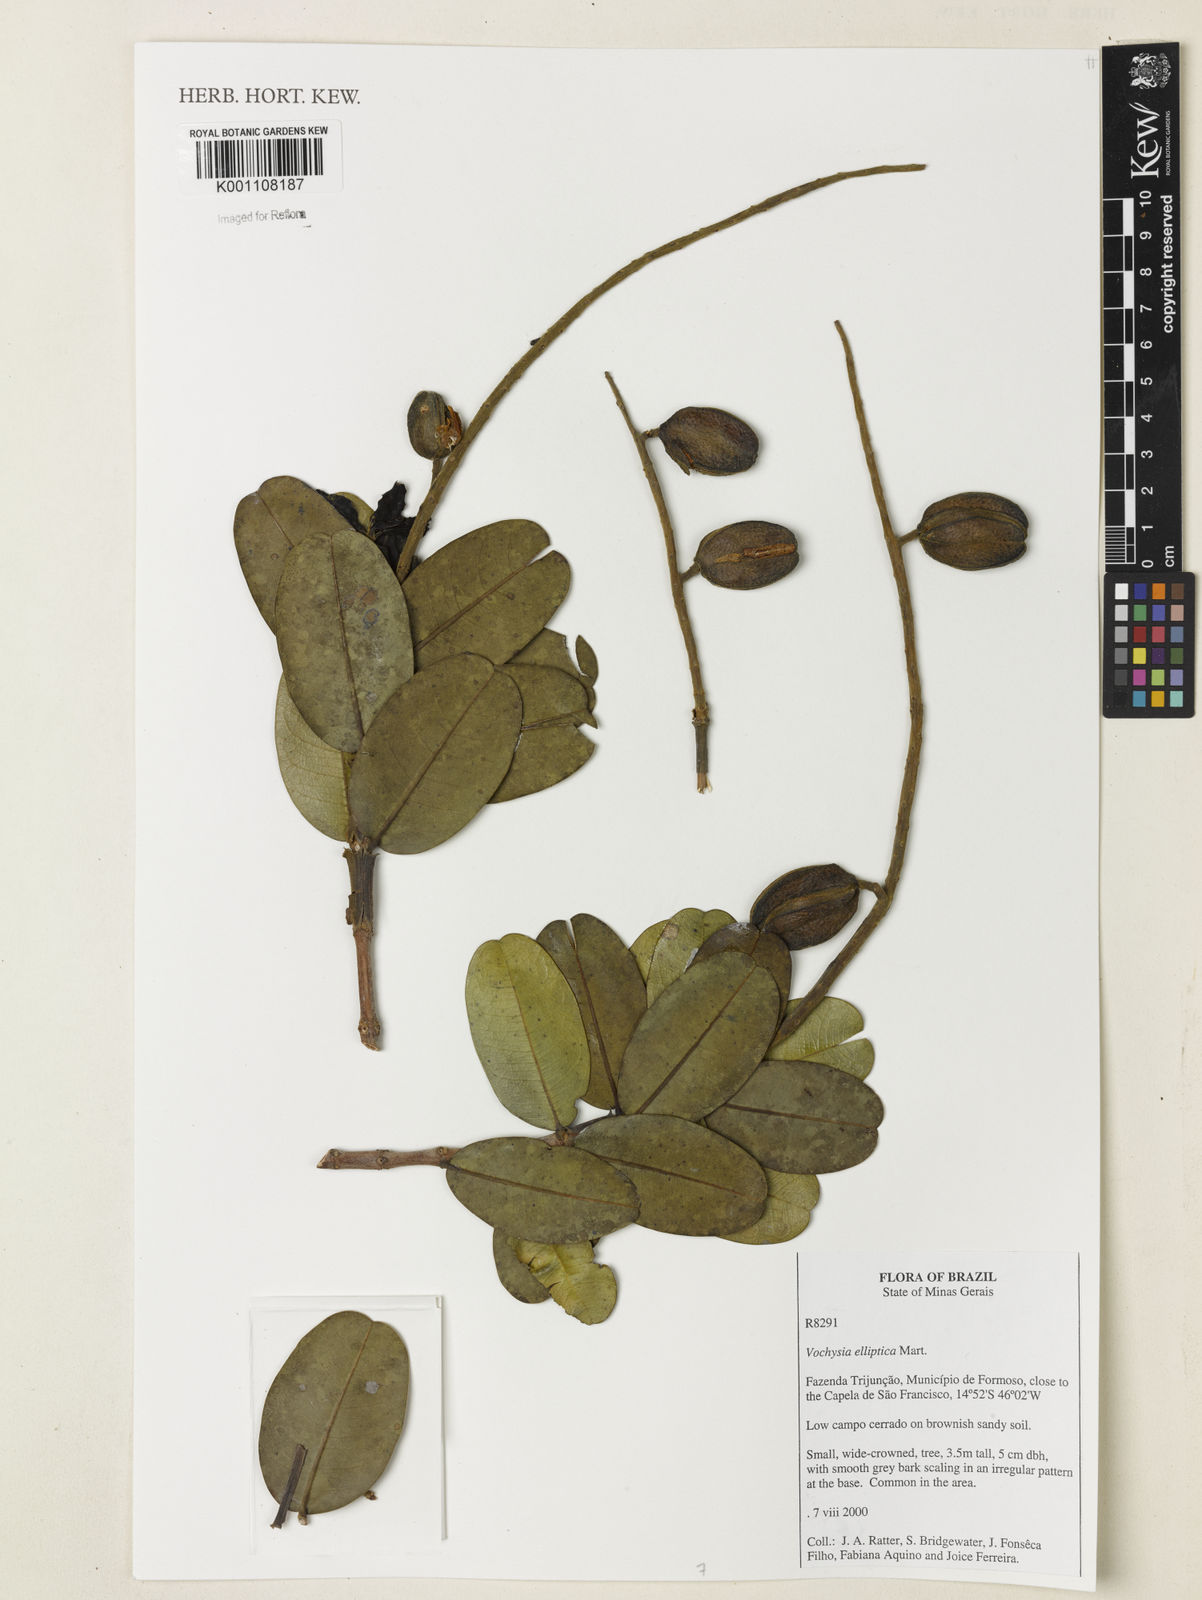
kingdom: Plantae
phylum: Tracheophyta
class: Magnoliopsida
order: Myrtales
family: Vochysiaceae
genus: Vochysia
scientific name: Vochysia elliptica
